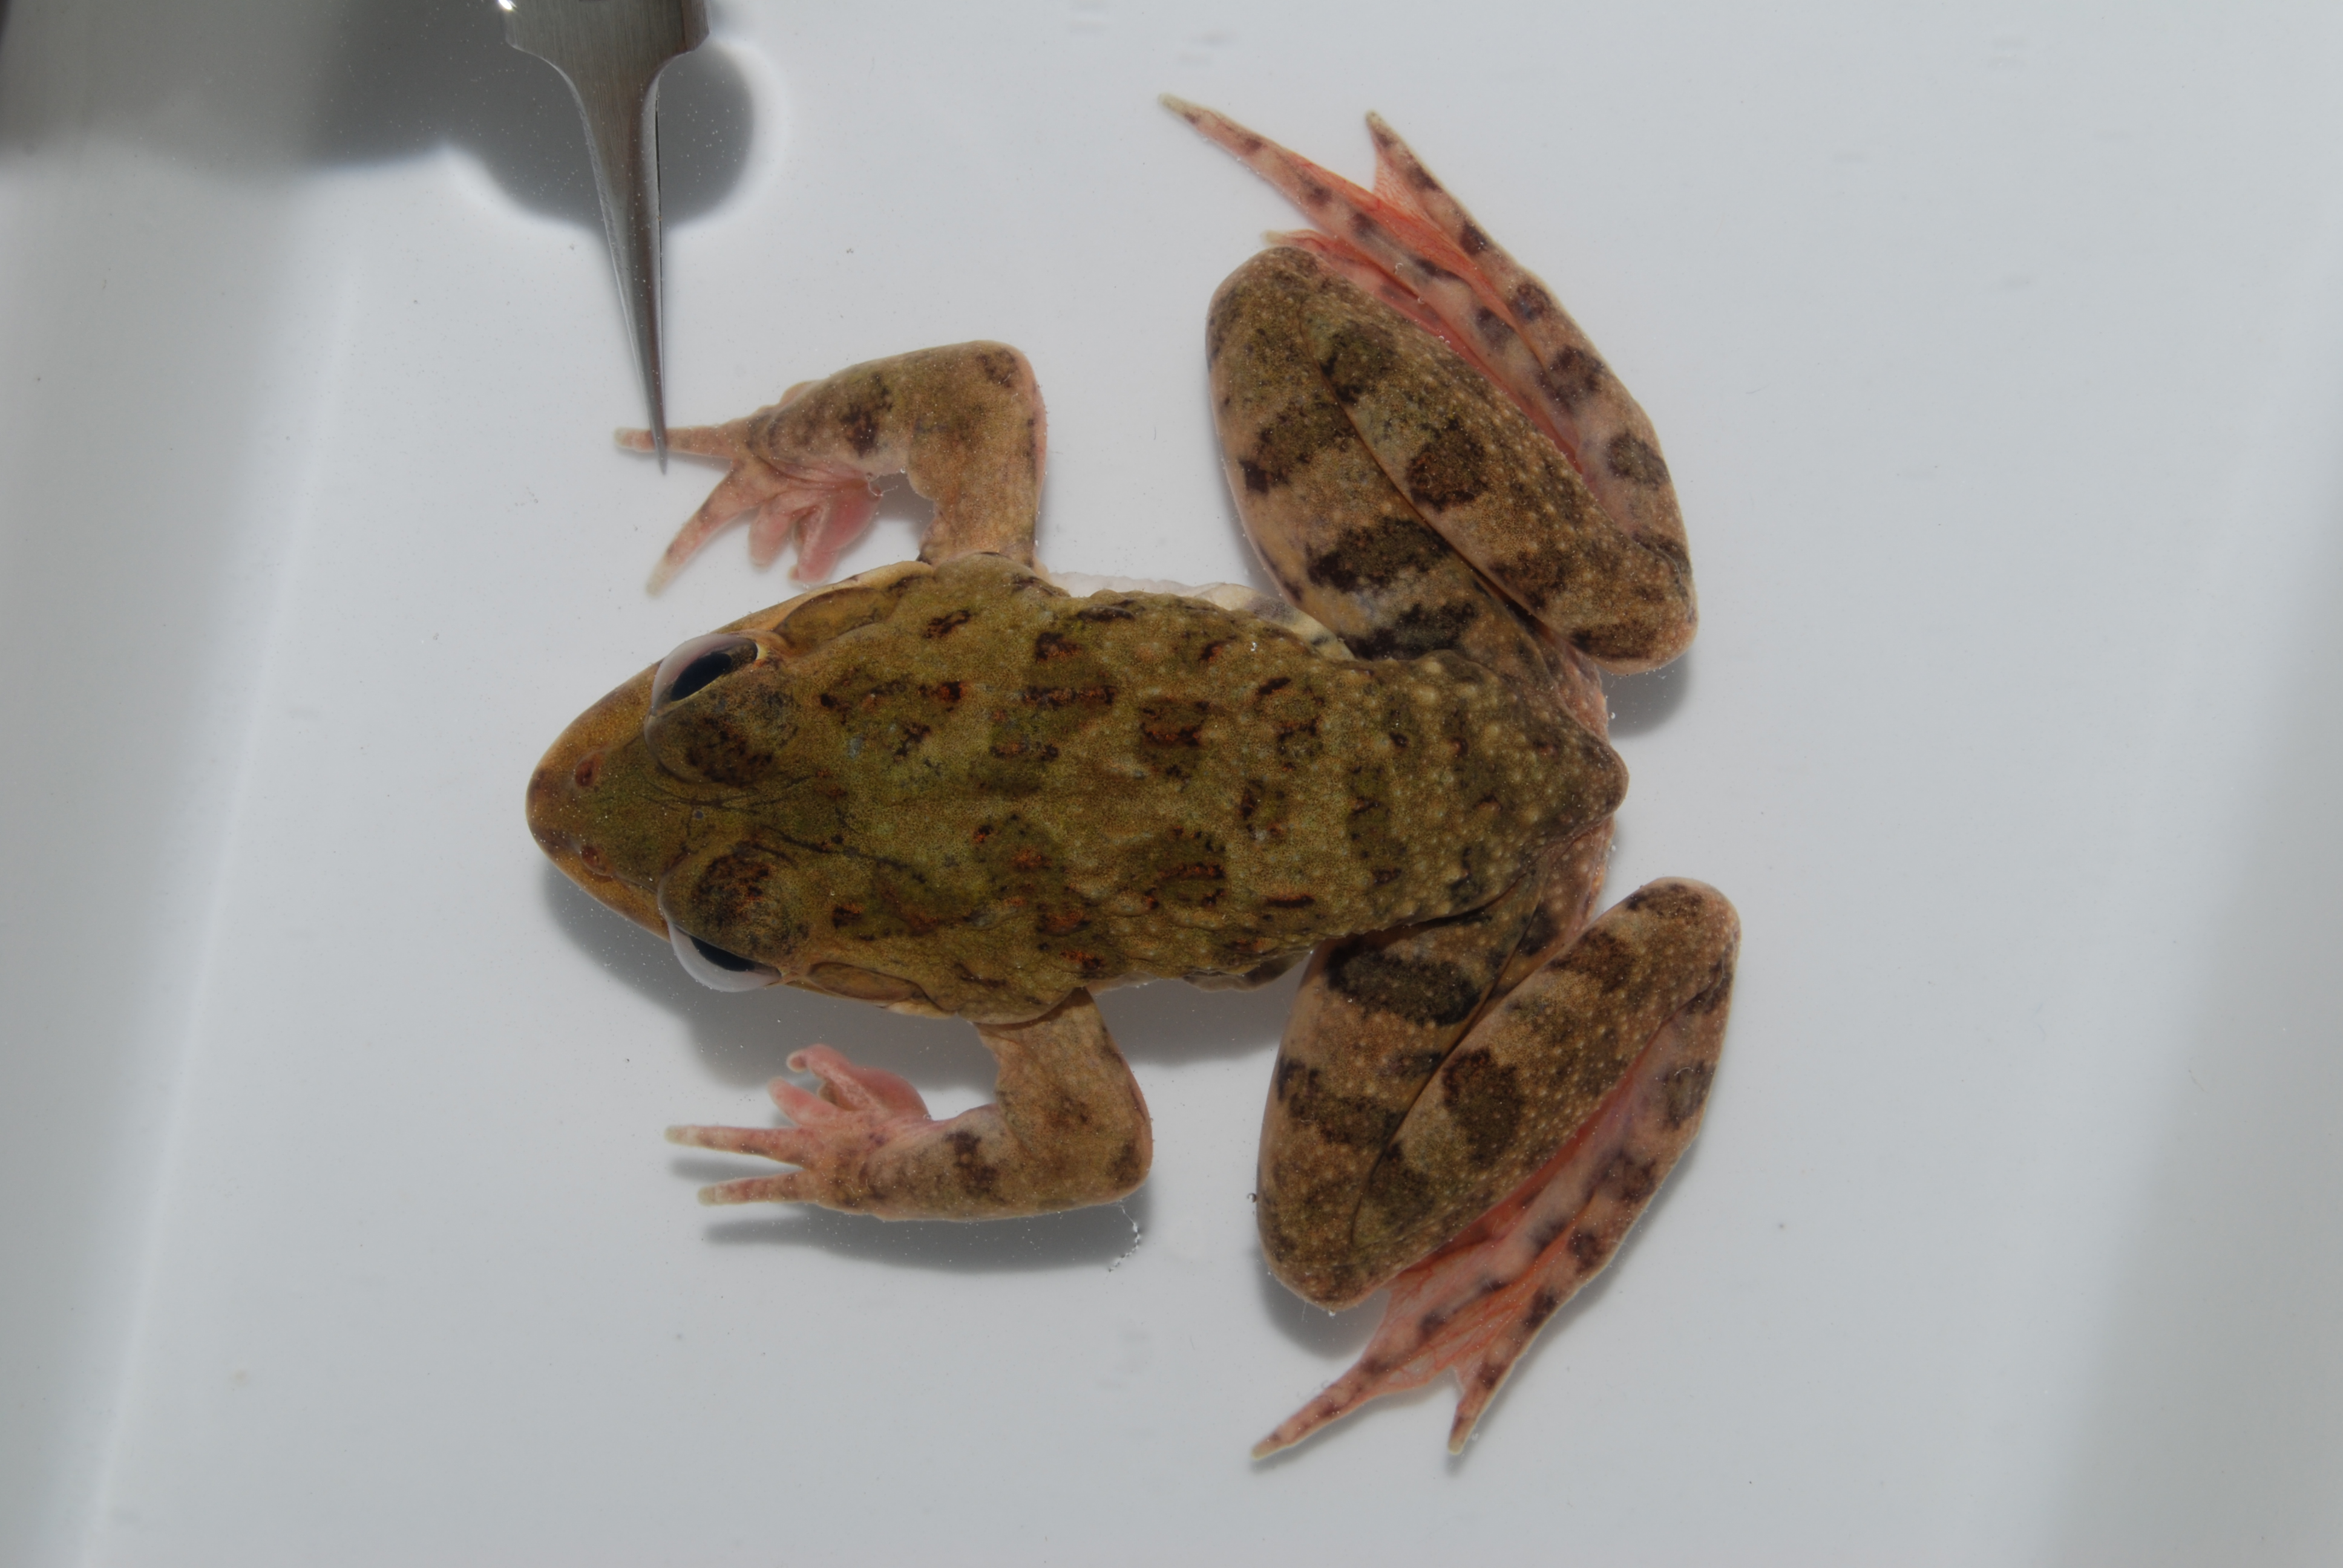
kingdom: Animalia
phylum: Chordata
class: Amphibia
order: Anura
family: Pyxicephalidae
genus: Amietia
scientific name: Amietia poyntoni
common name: Poynton's river frog
